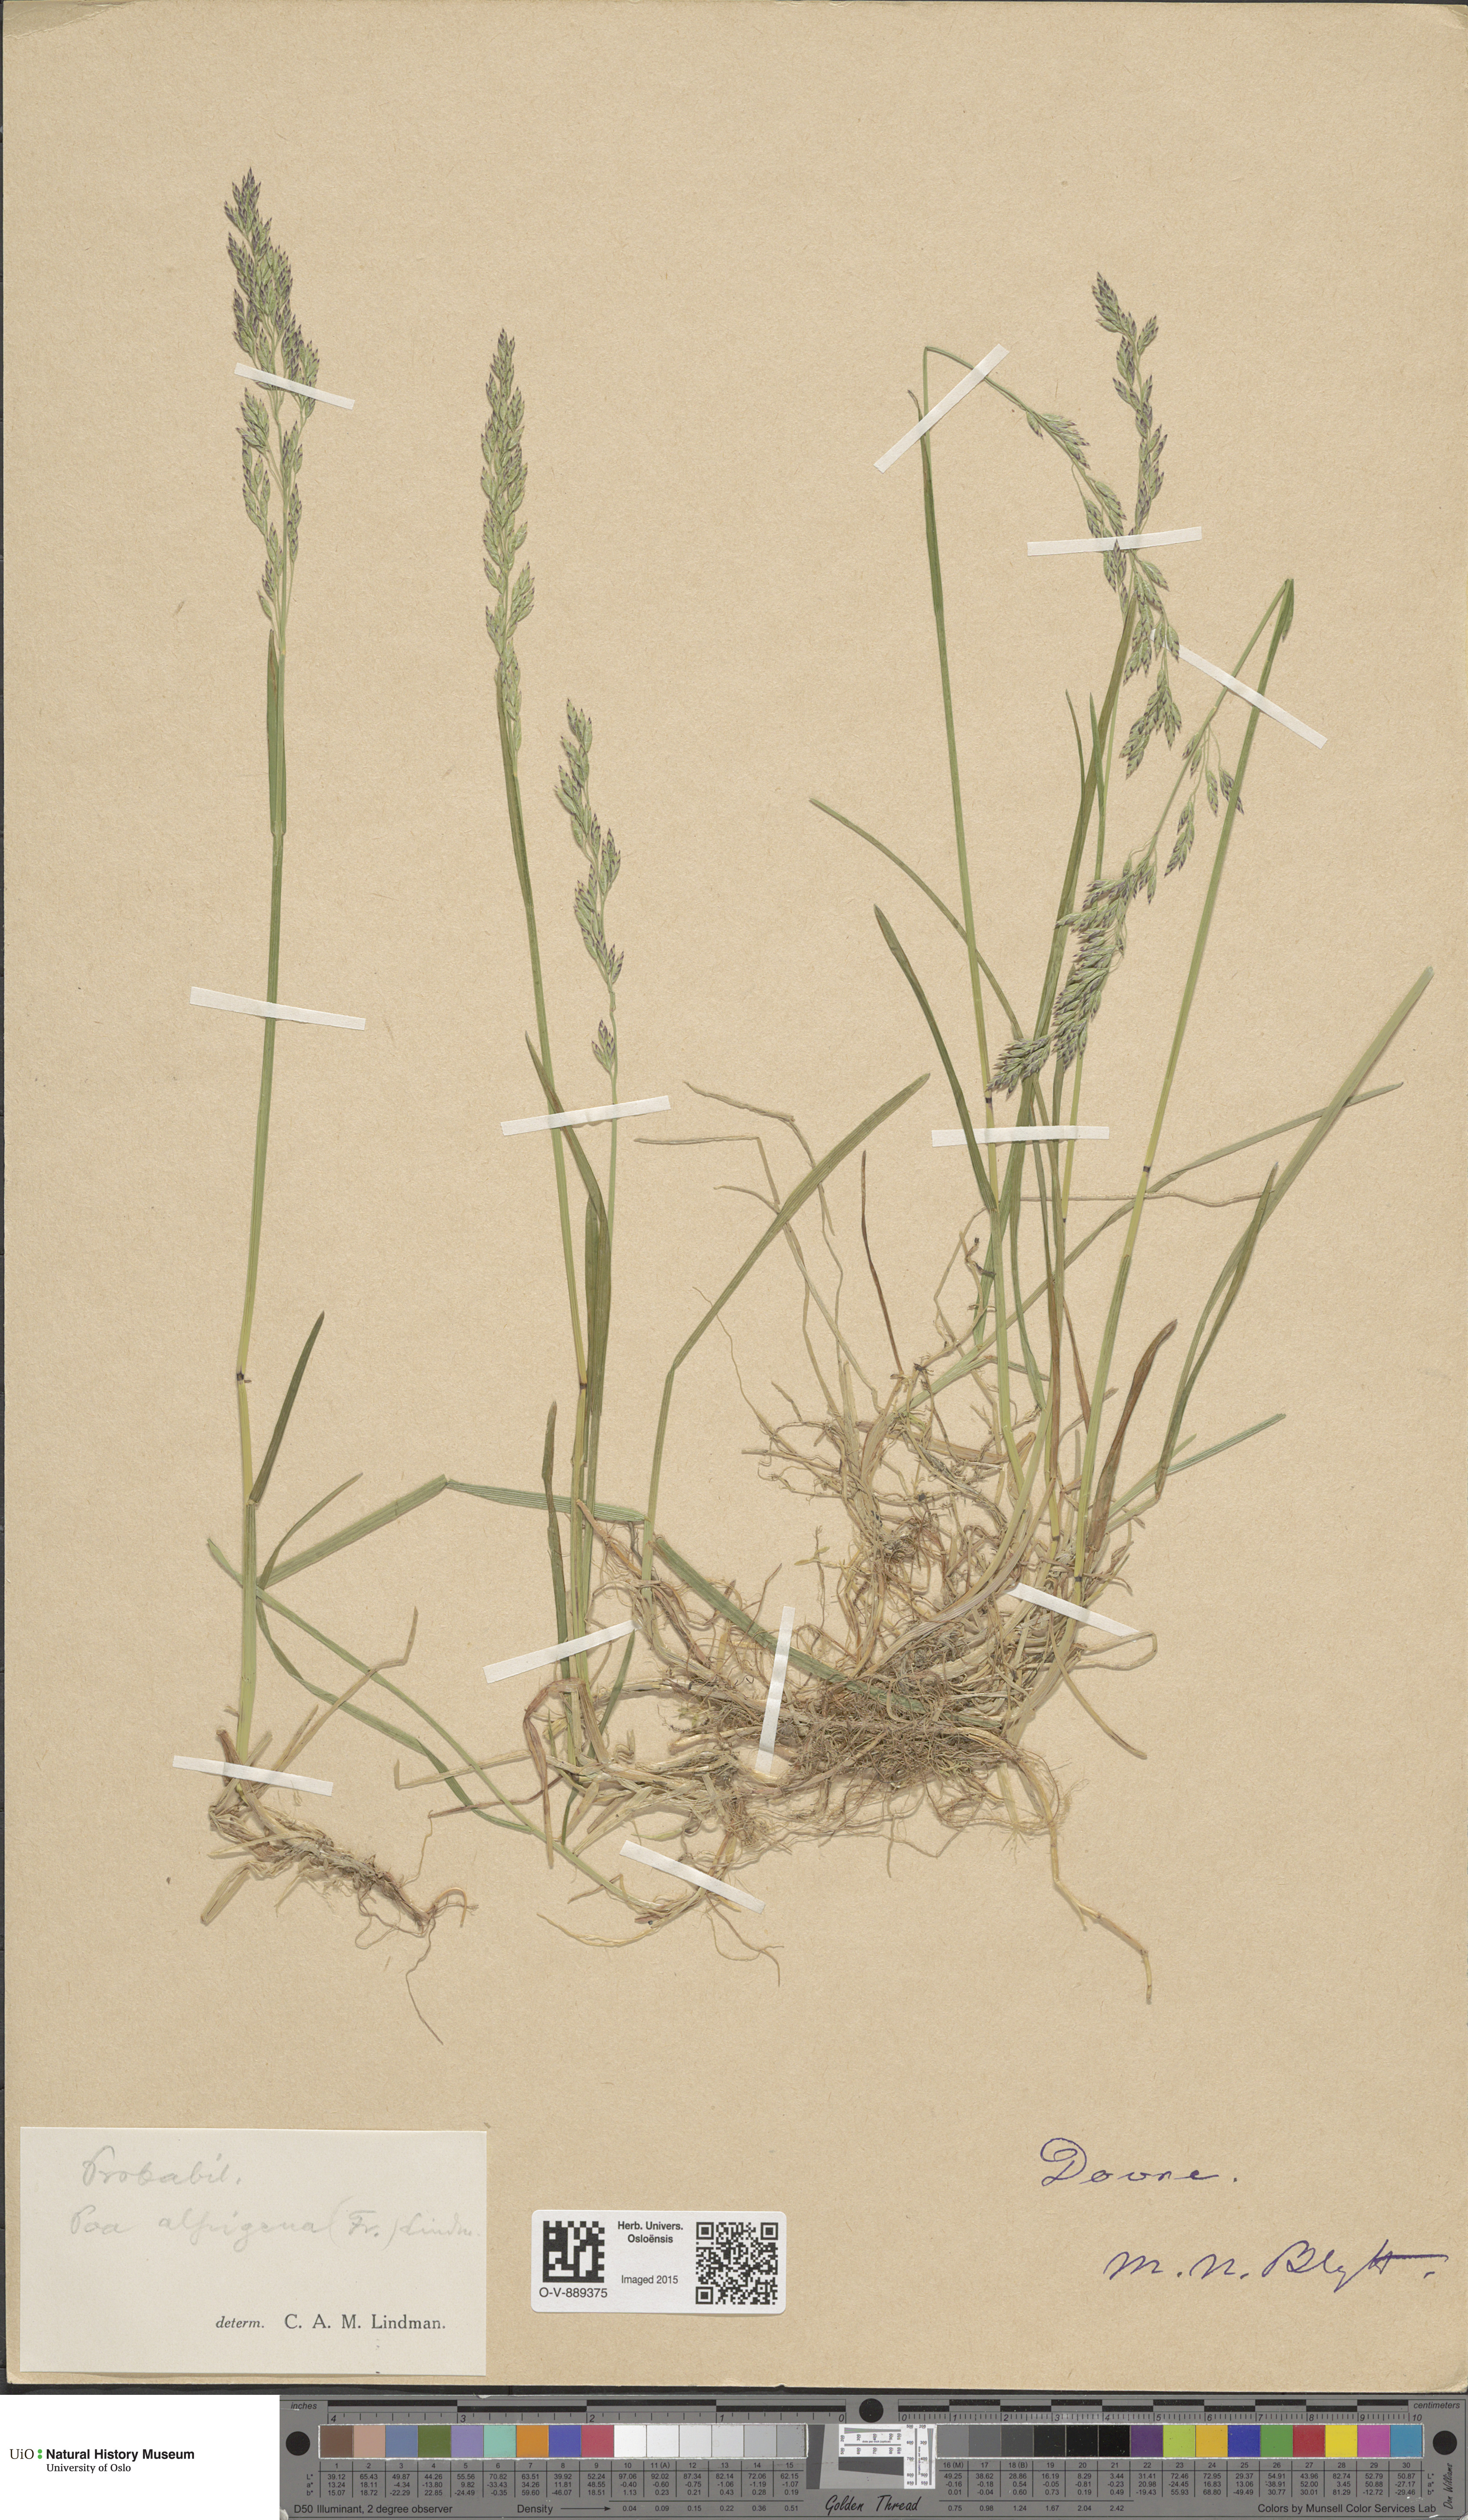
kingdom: Plantae
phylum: Tracheophyta
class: Liliopsida
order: Poales
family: Poaceae
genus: Poa
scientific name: Poa alpigena
